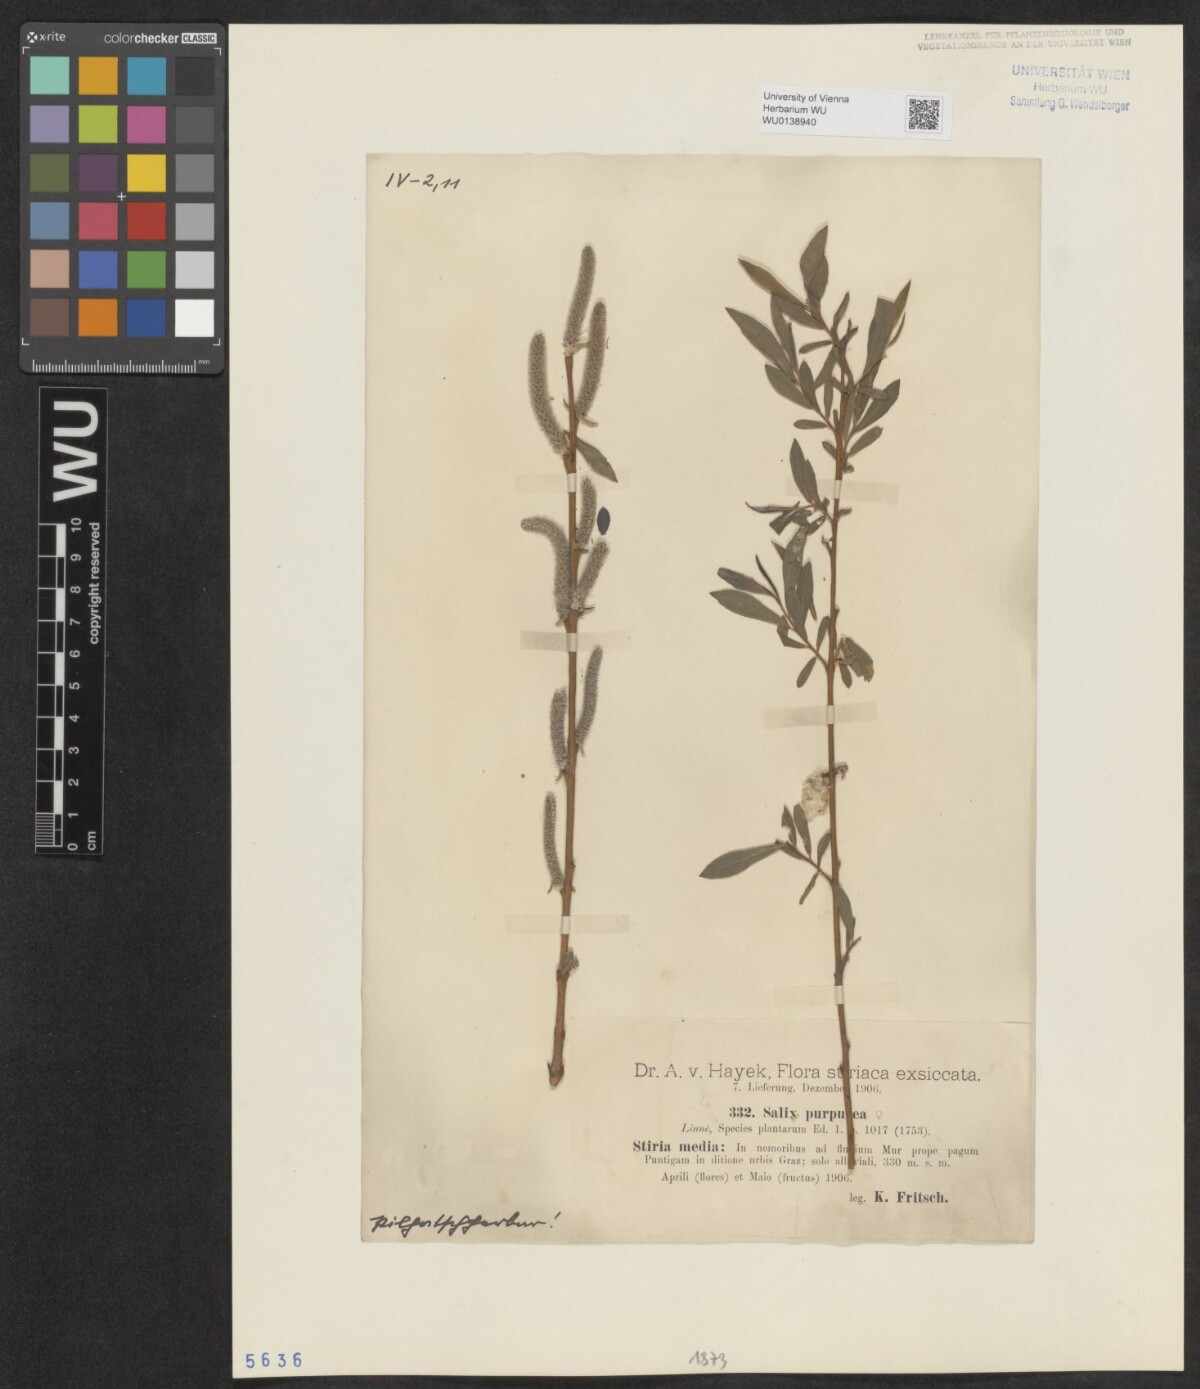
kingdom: Plantae
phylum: Tracheophyta
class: Magnoliopsida
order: Malpighiales
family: Salicaceae
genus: Salix
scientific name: Salix purpurea
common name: Purple willow
